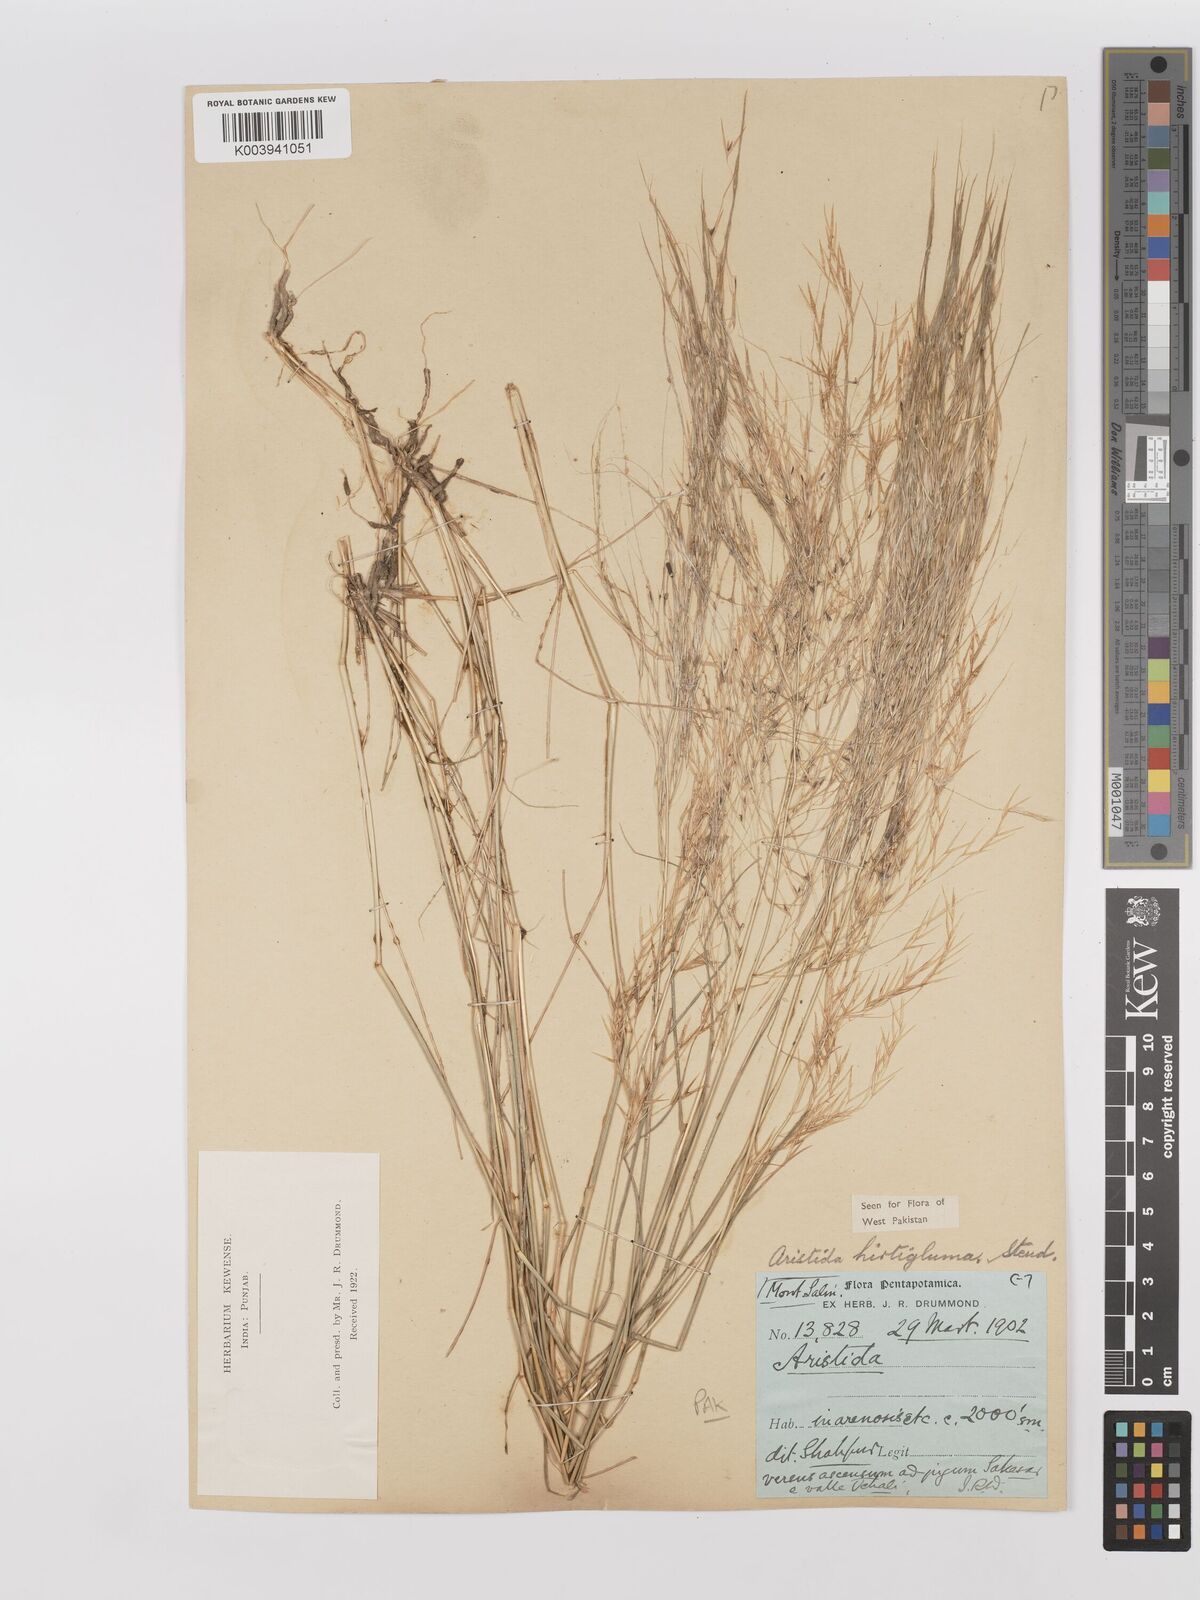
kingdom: Plantae
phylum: Tracheophyta
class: Liliopsida
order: Poales
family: Poaceae
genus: Stipagrostis
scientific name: Stipagrostis hirtigluma
